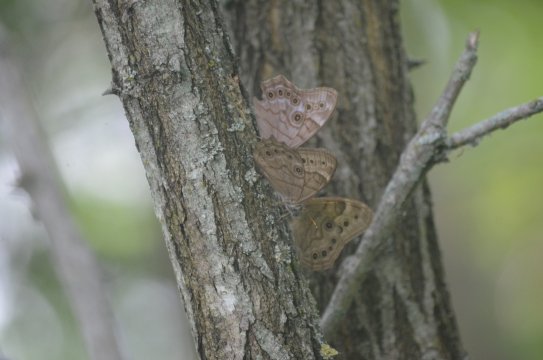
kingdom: Animalia
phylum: Arthropoda
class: Insecta
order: Lepidoptera
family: Nymphalidae
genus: Lethe
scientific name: Lethe anthedon
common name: Northern Pearly-Eye
